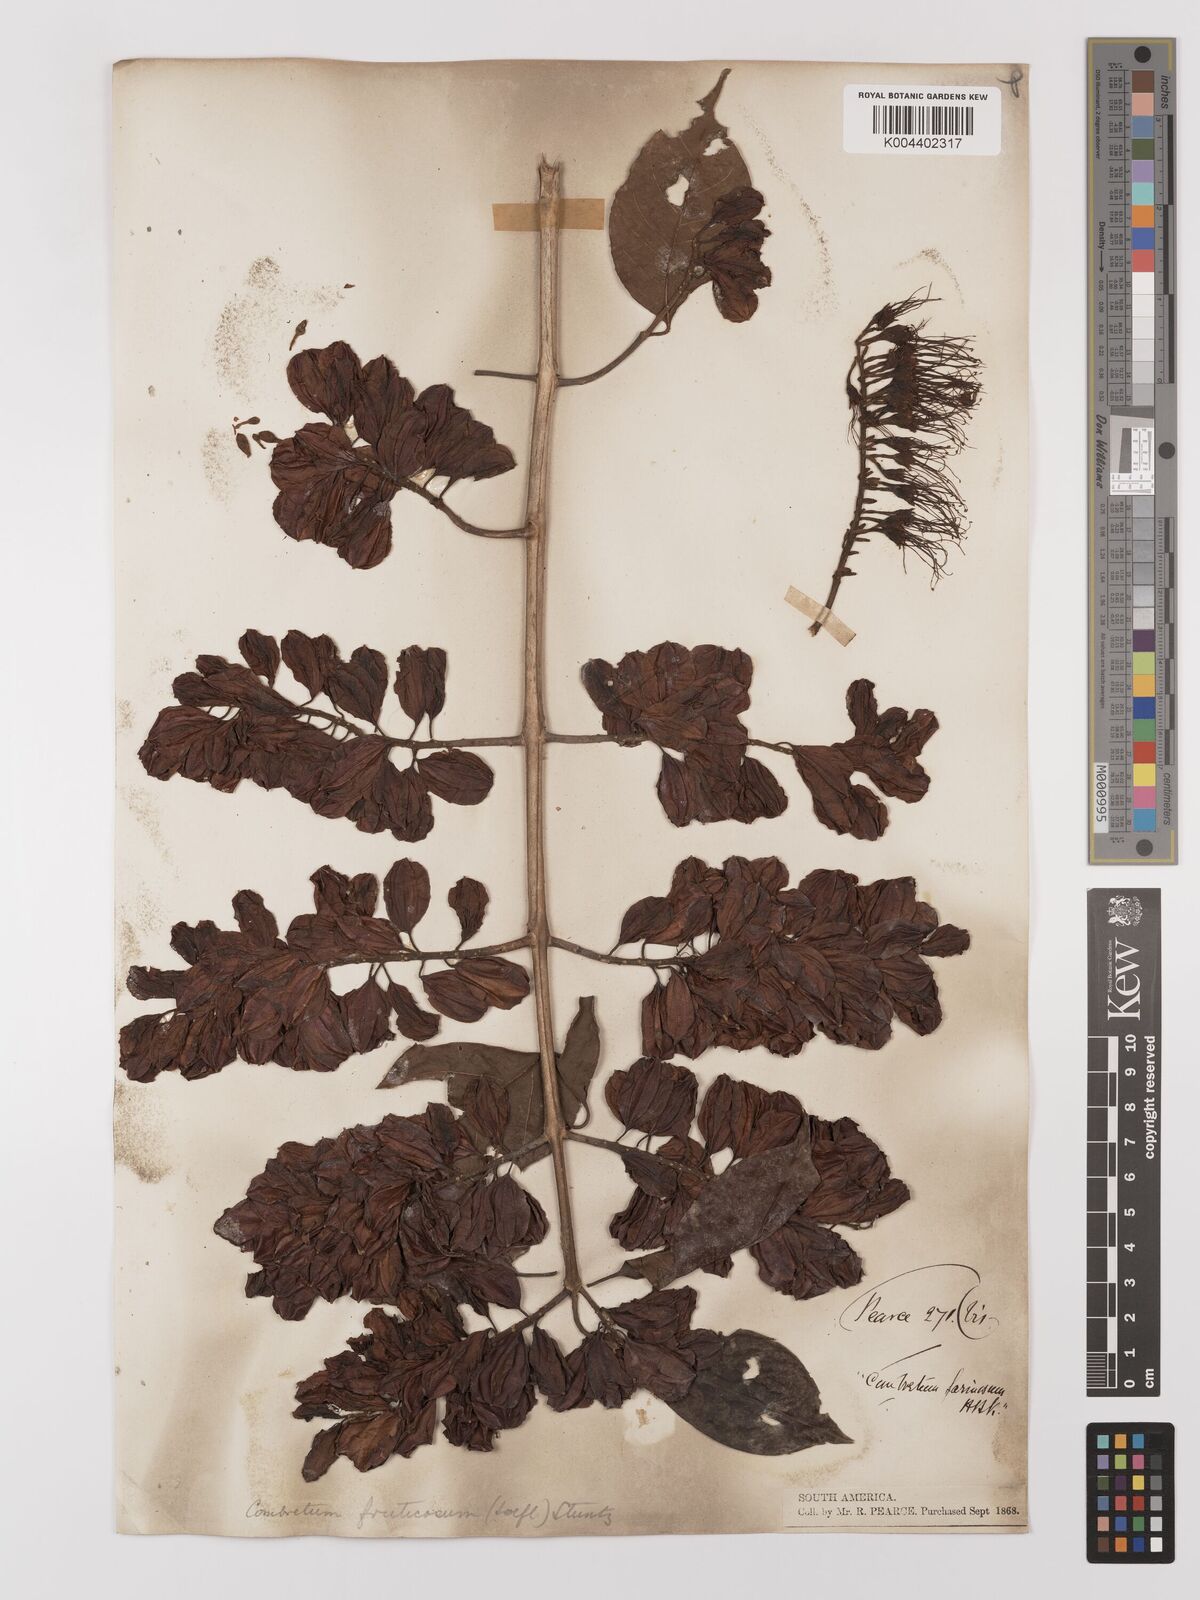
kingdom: Plantae
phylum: Tracheophyta
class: Magnoliopsida
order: Myrtales
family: Combretaceae
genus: Combretum
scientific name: Combretum fruticosum
